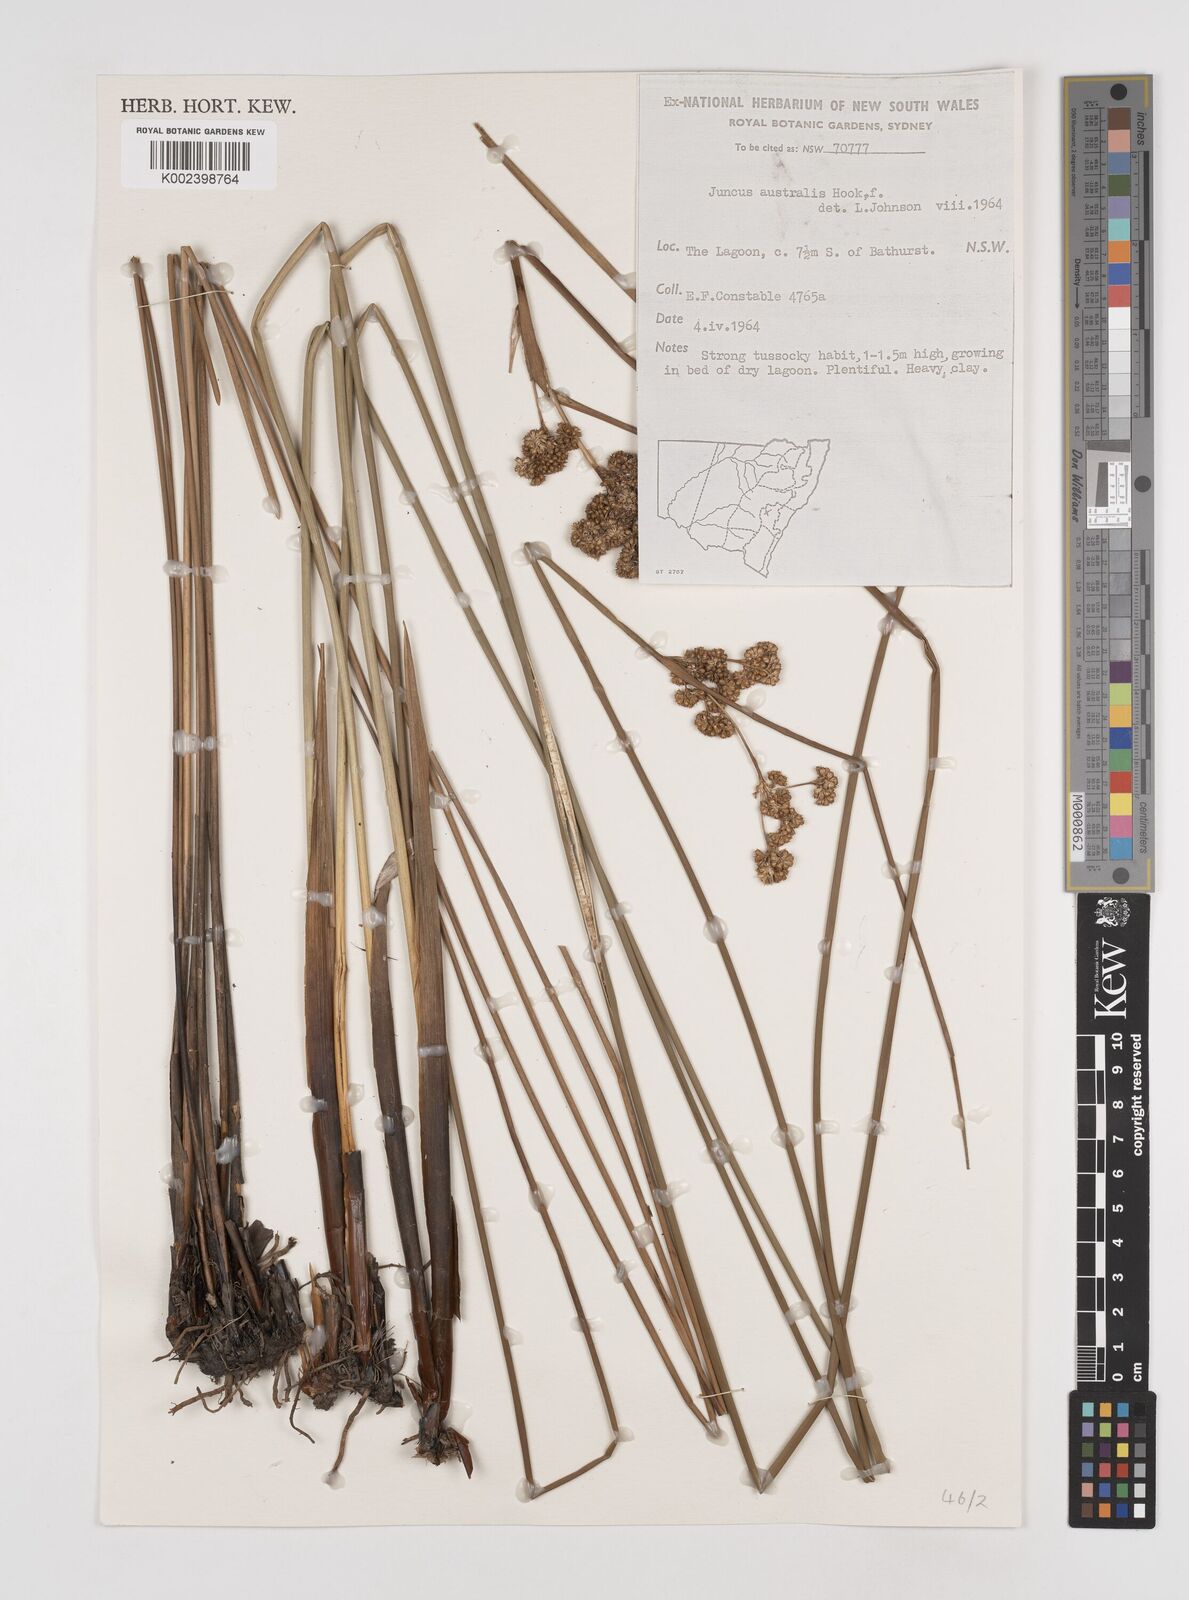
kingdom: Plantae
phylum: Tracheophyta
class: Liliopsida
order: Poales
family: Juncaceae
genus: Juncus
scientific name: Juncus australis
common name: Austral rush
